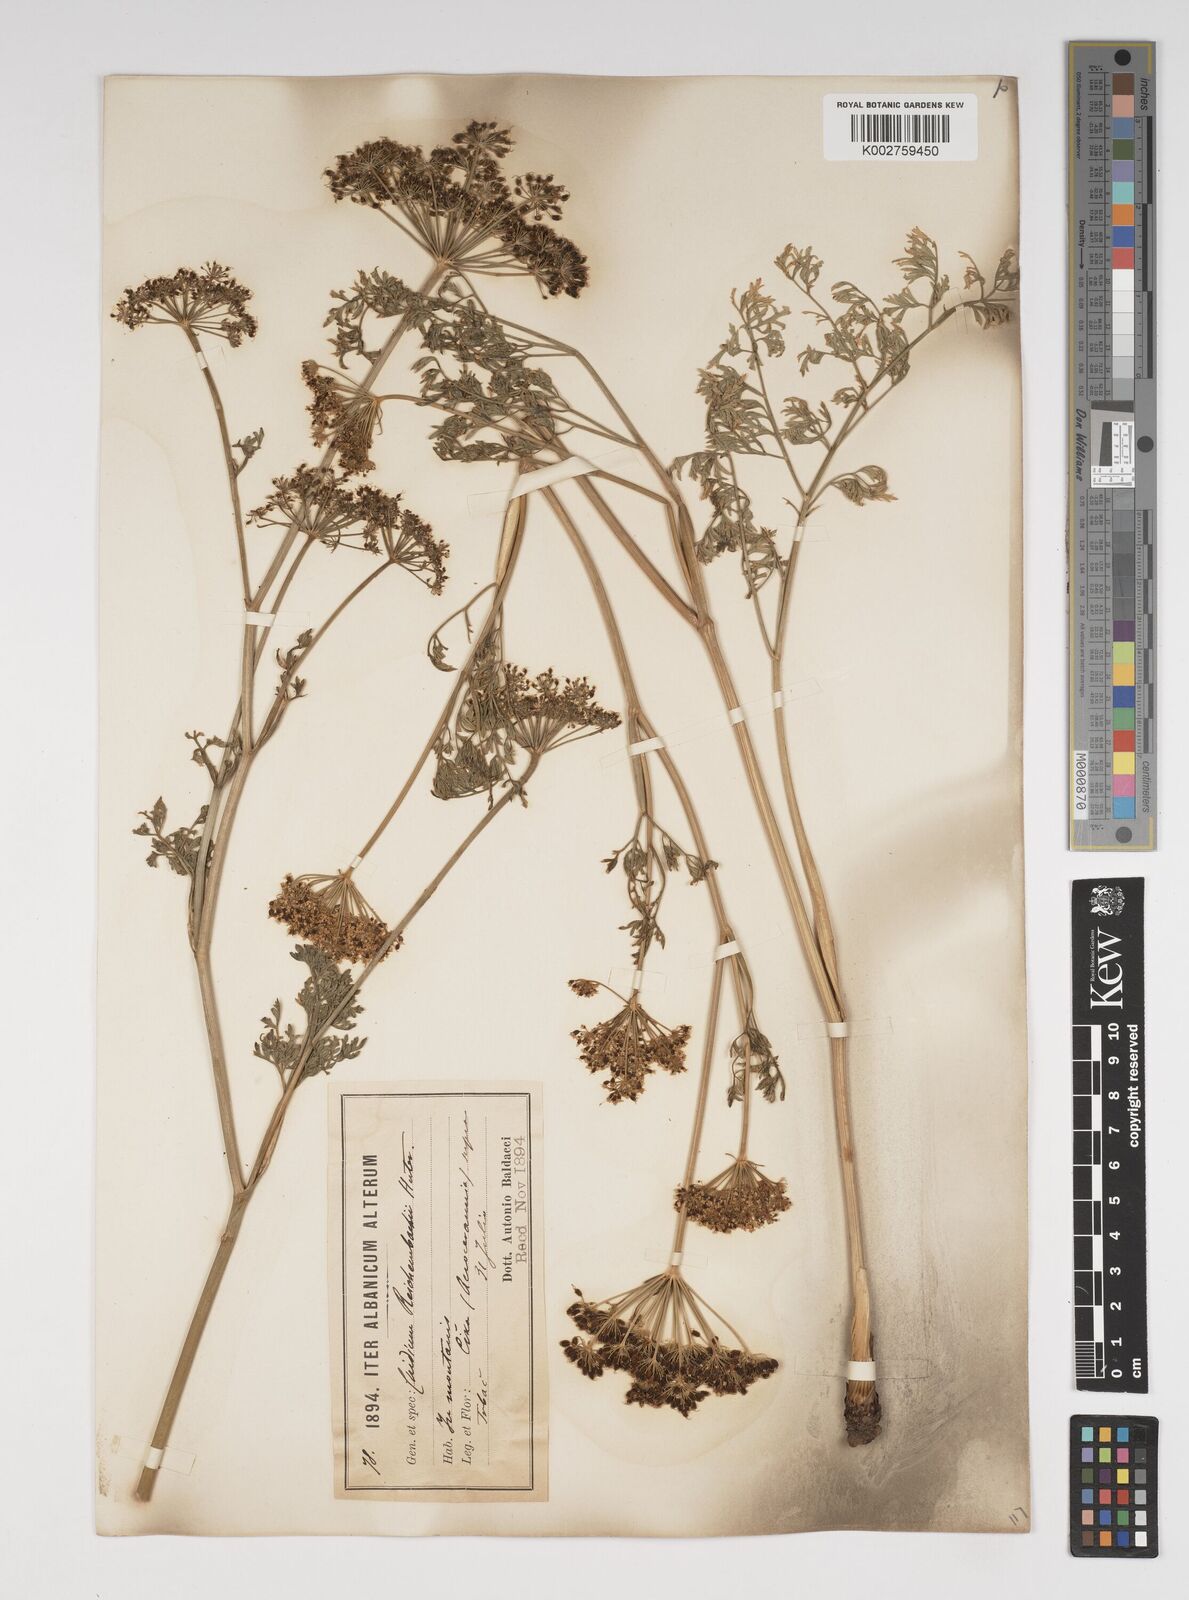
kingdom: Plantae
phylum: Tracheophyta
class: Magnoliopsida
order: Apiales
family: Apiaceae
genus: Selinum
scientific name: Selinum
